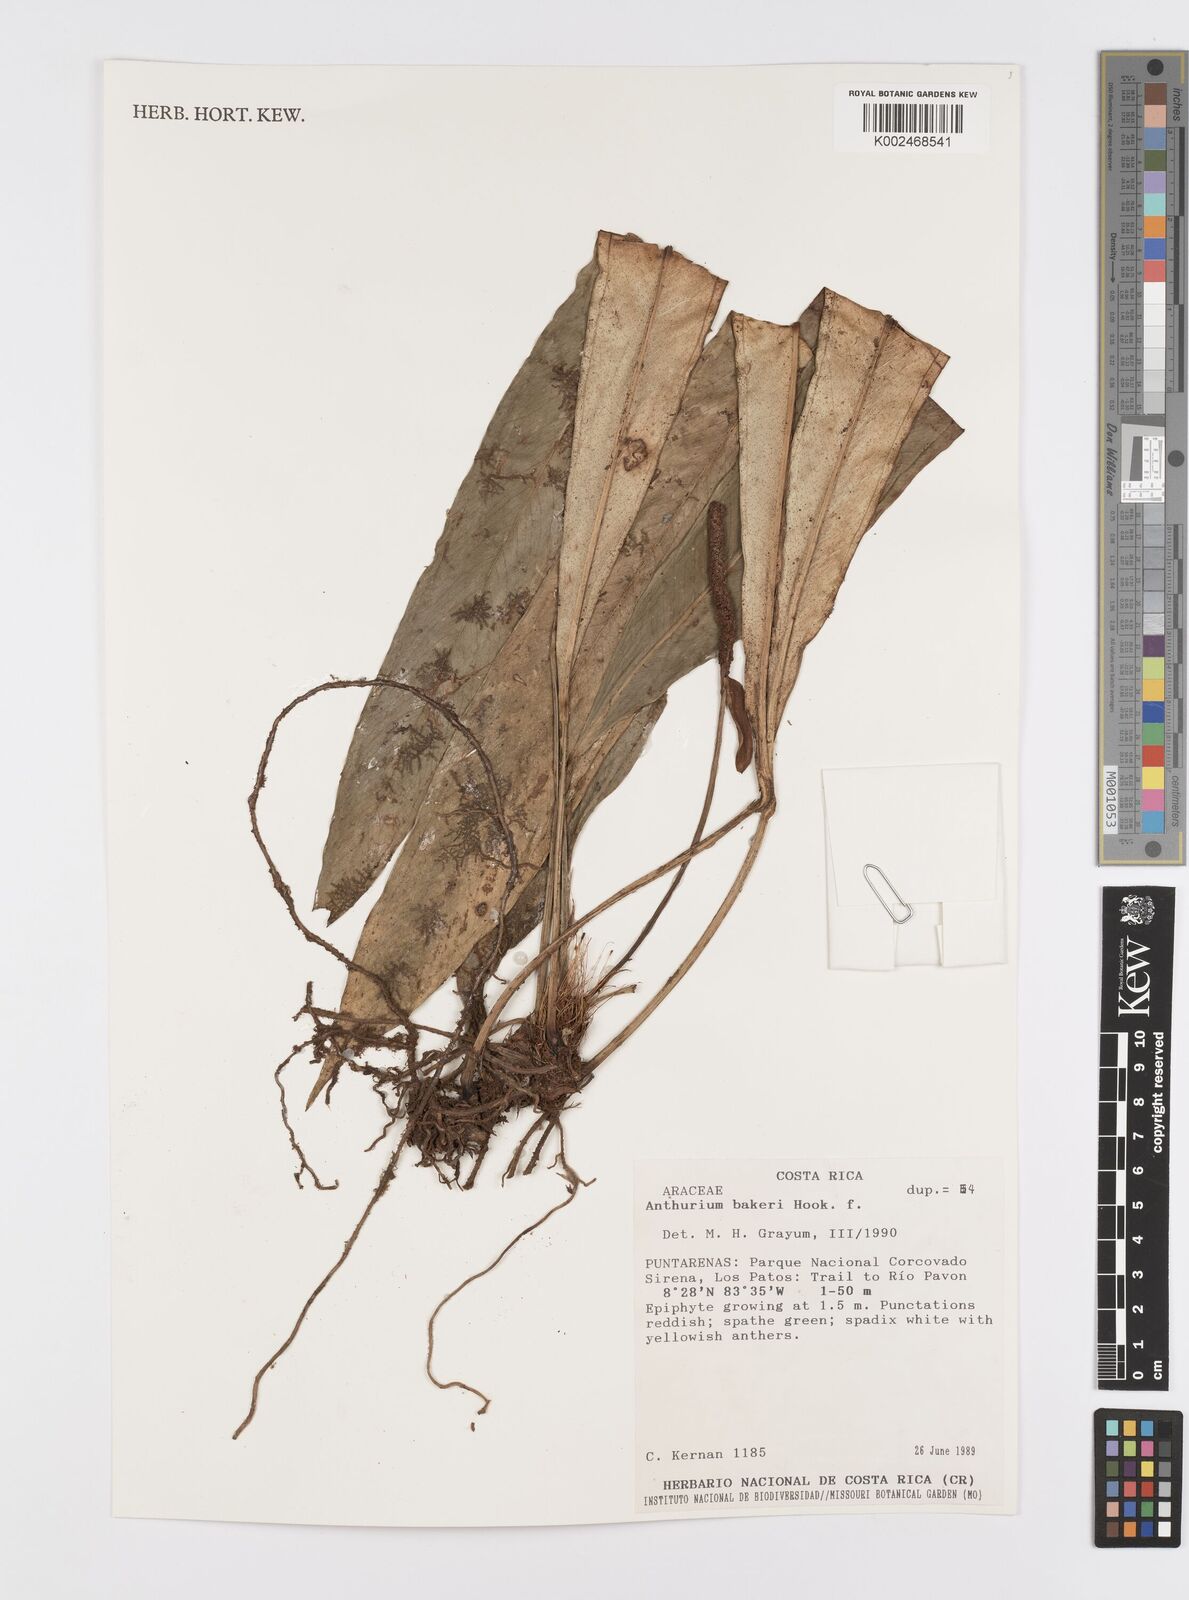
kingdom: Plantae
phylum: Tracheophyta
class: Liliopsida
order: Alismatales
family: Araceae
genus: Anthurium
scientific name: Anthurium bakeri
